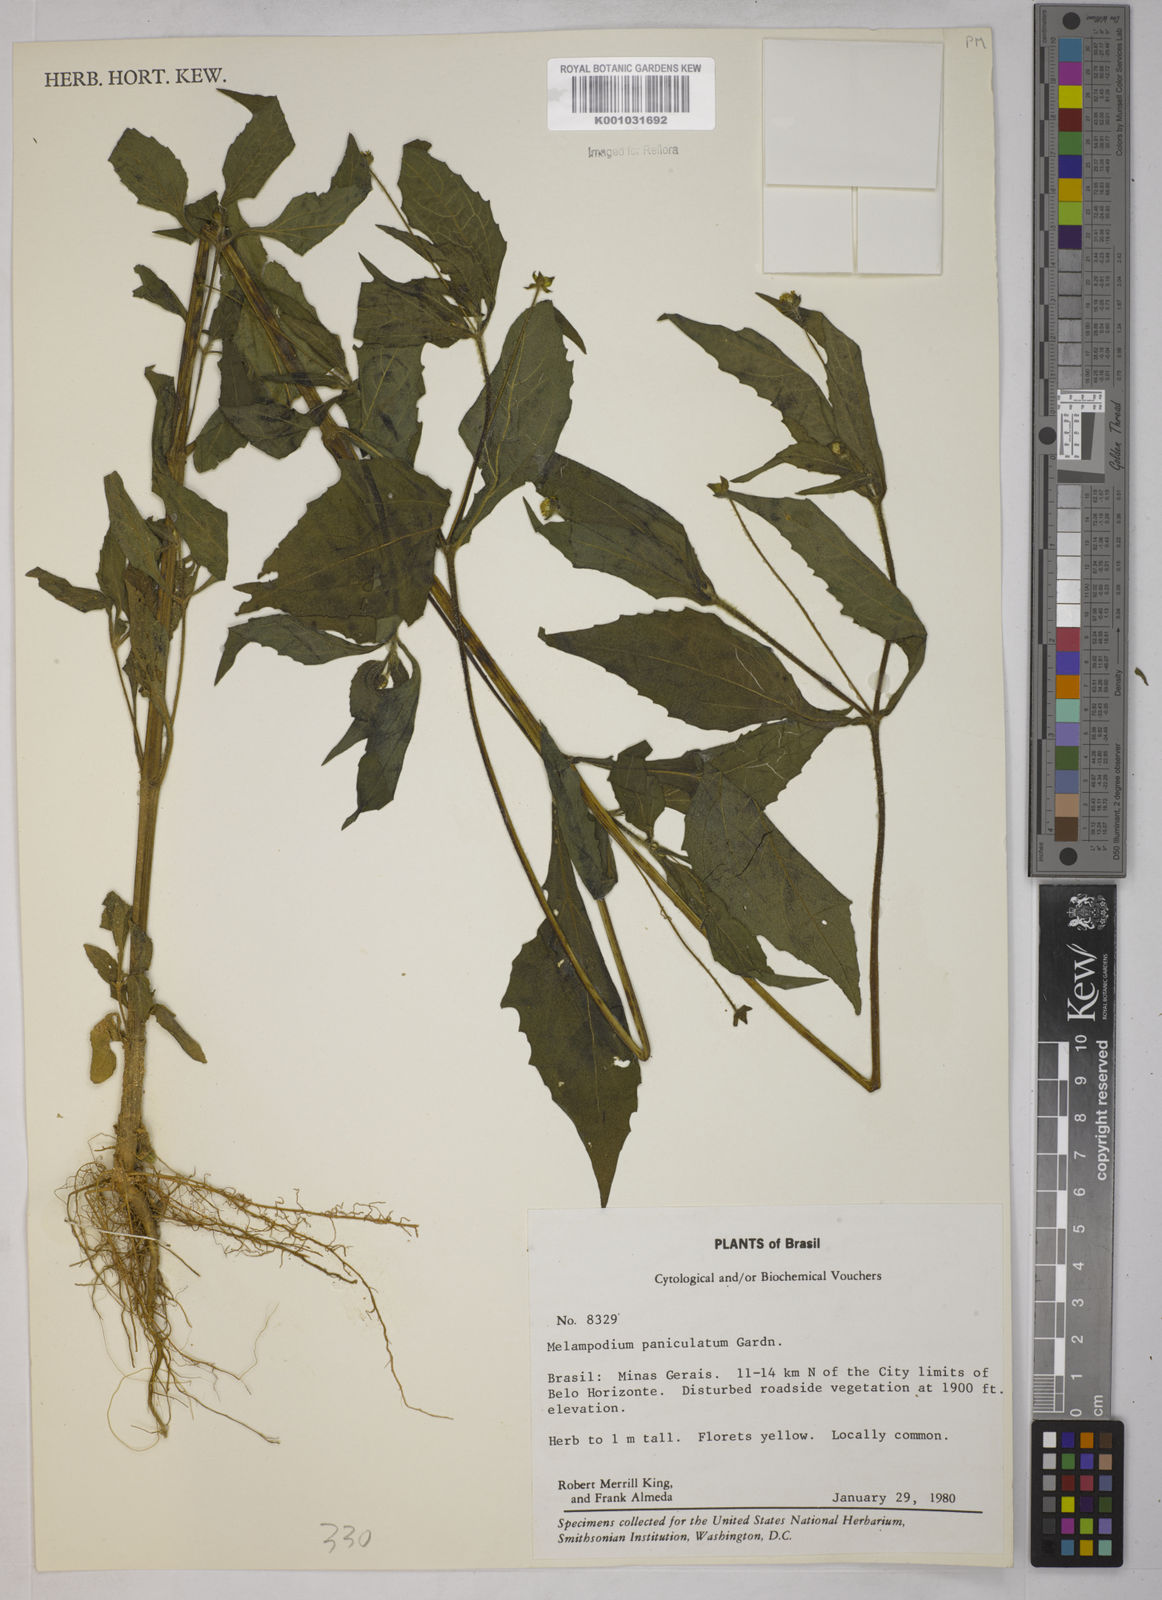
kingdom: Plantae
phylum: Tracheophyta
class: Magnoliopsida
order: Asterales
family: Asteraceae
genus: Melampodium
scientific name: Melampodium paniculatum
